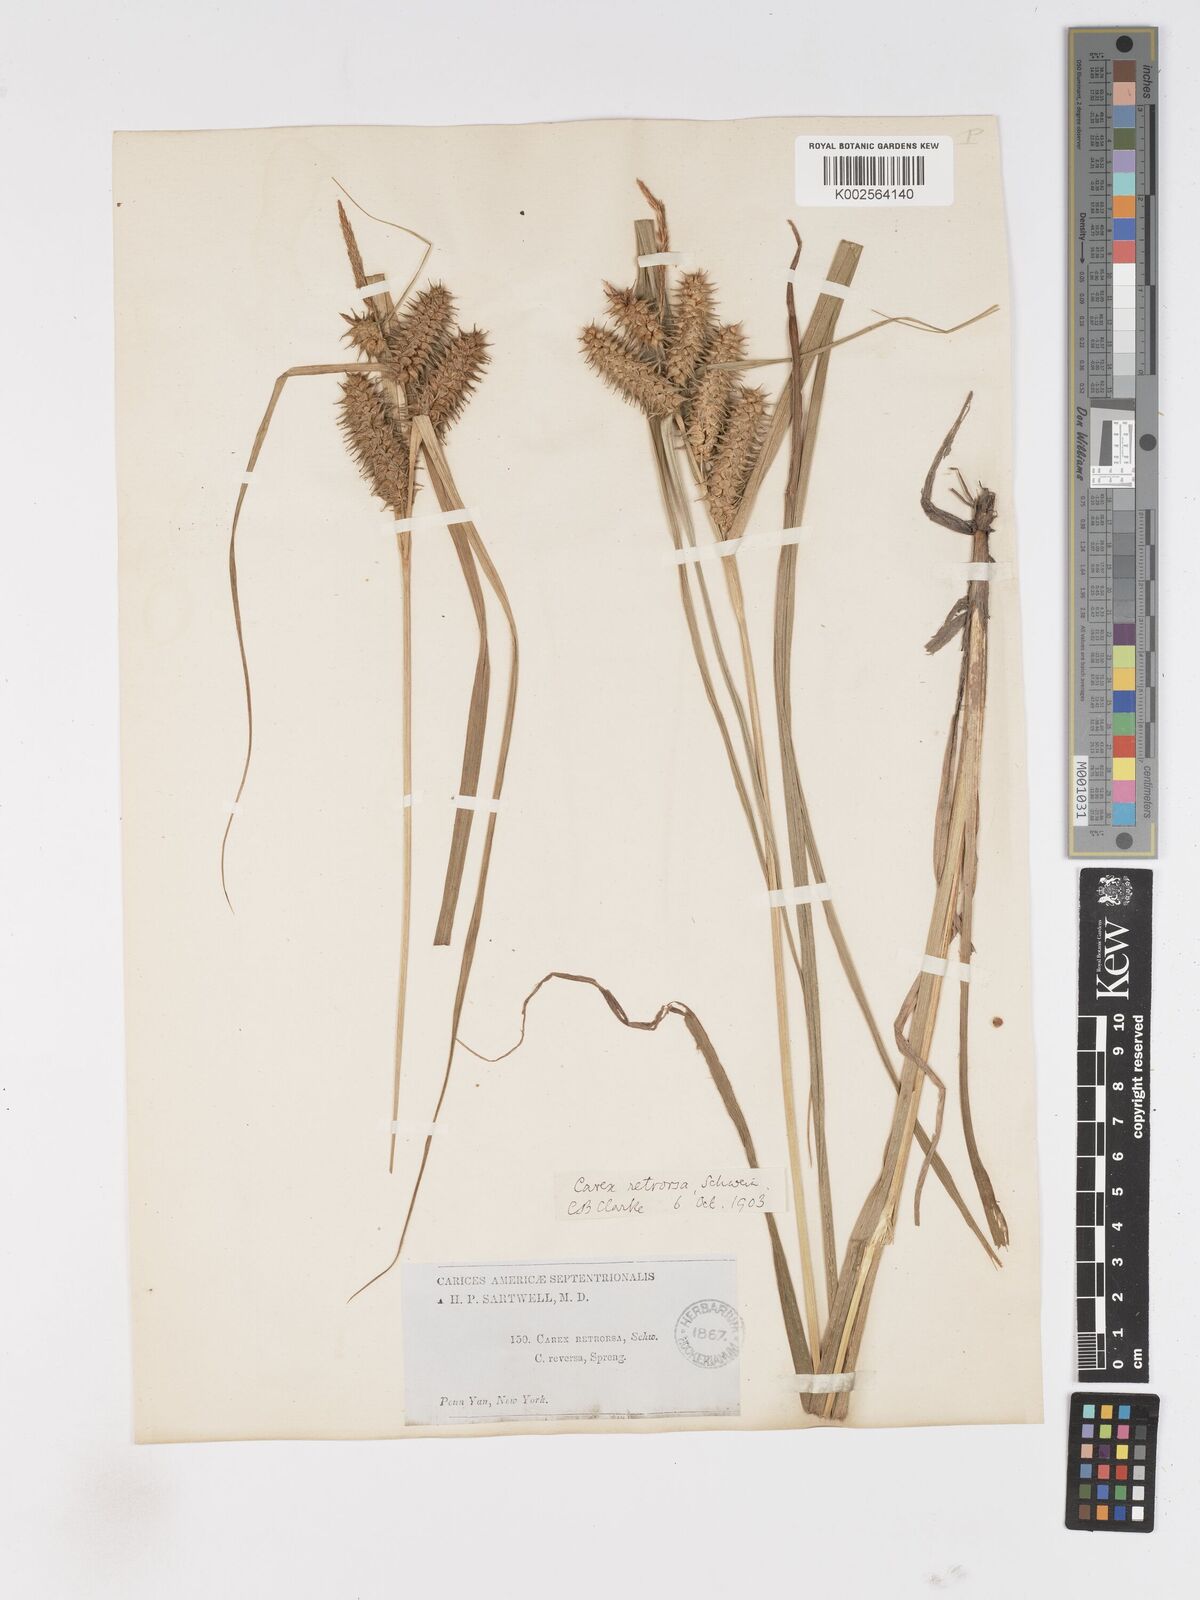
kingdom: Plantae
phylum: Tracheophyta
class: Liliopsida
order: Poales
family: Cyperaceae
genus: Carex
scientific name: Carex retrorsa
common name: Knot-sheath sedge
